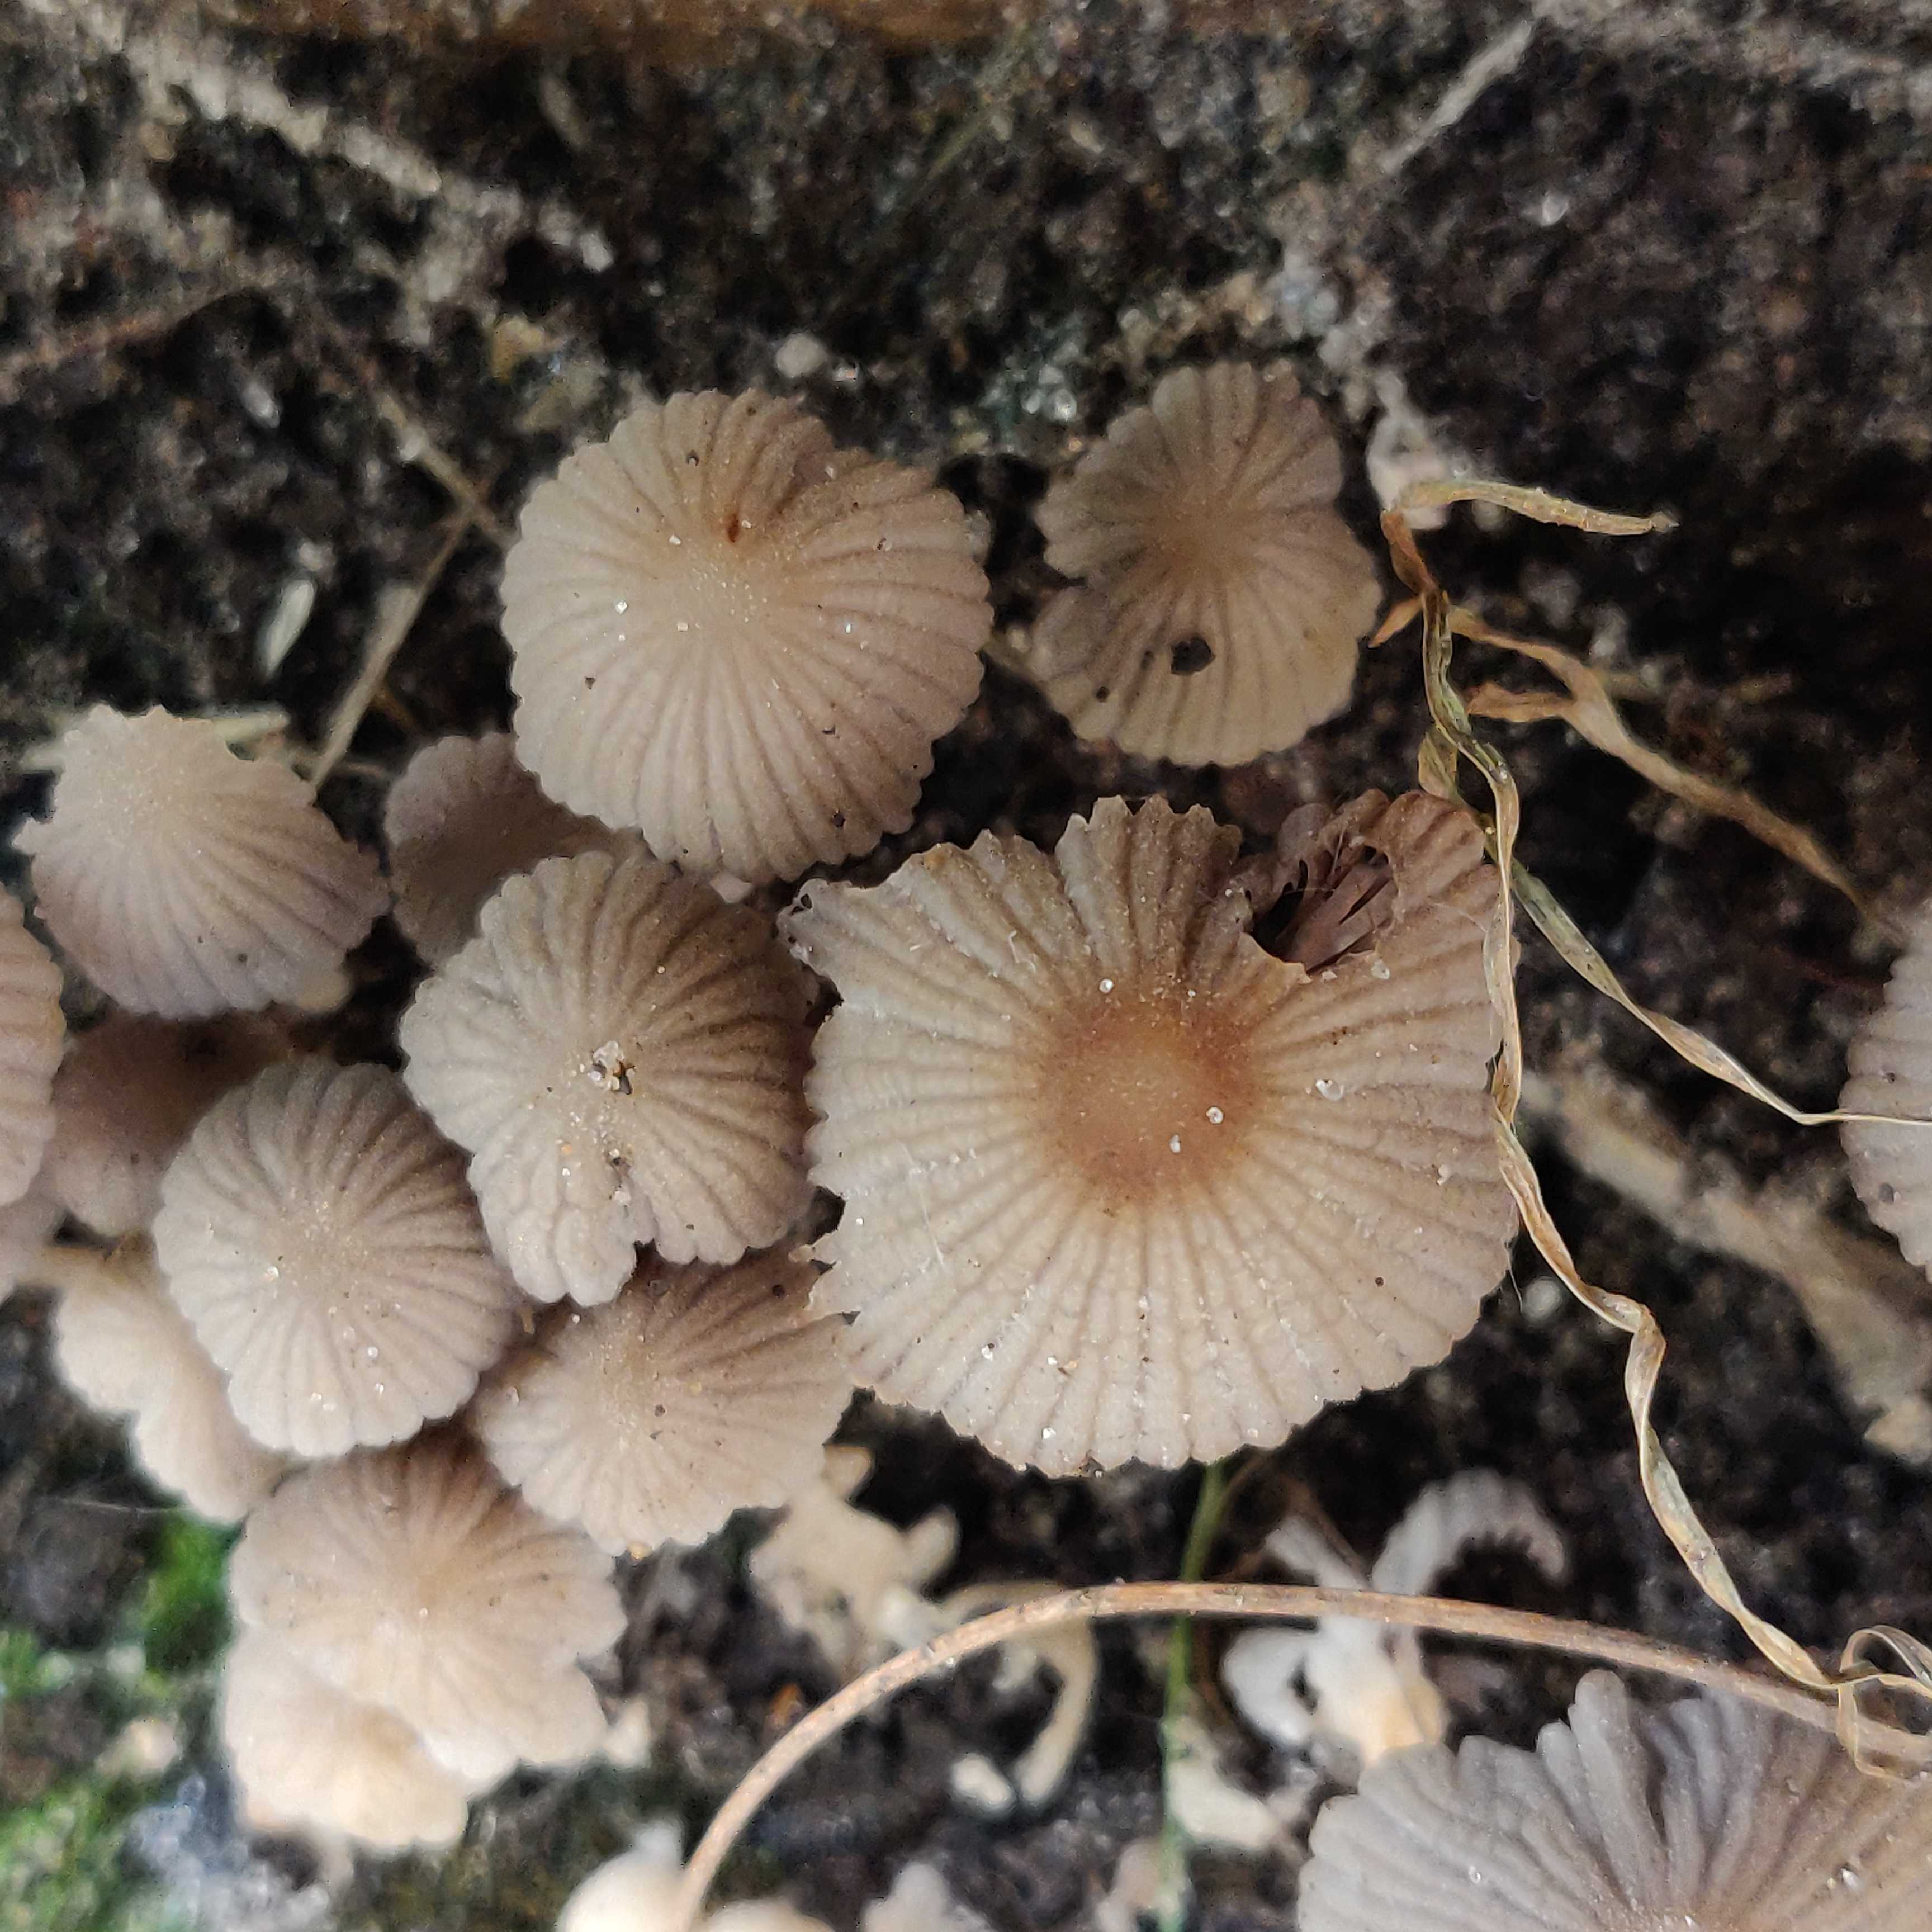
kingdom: Fungi
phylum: Basidiomycota
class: Agaricomycetes
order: Agaricales
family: Psathyrellaceae
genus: Coprinellus
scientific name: Coprinellus disseminatus
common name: bredsået blækhat
